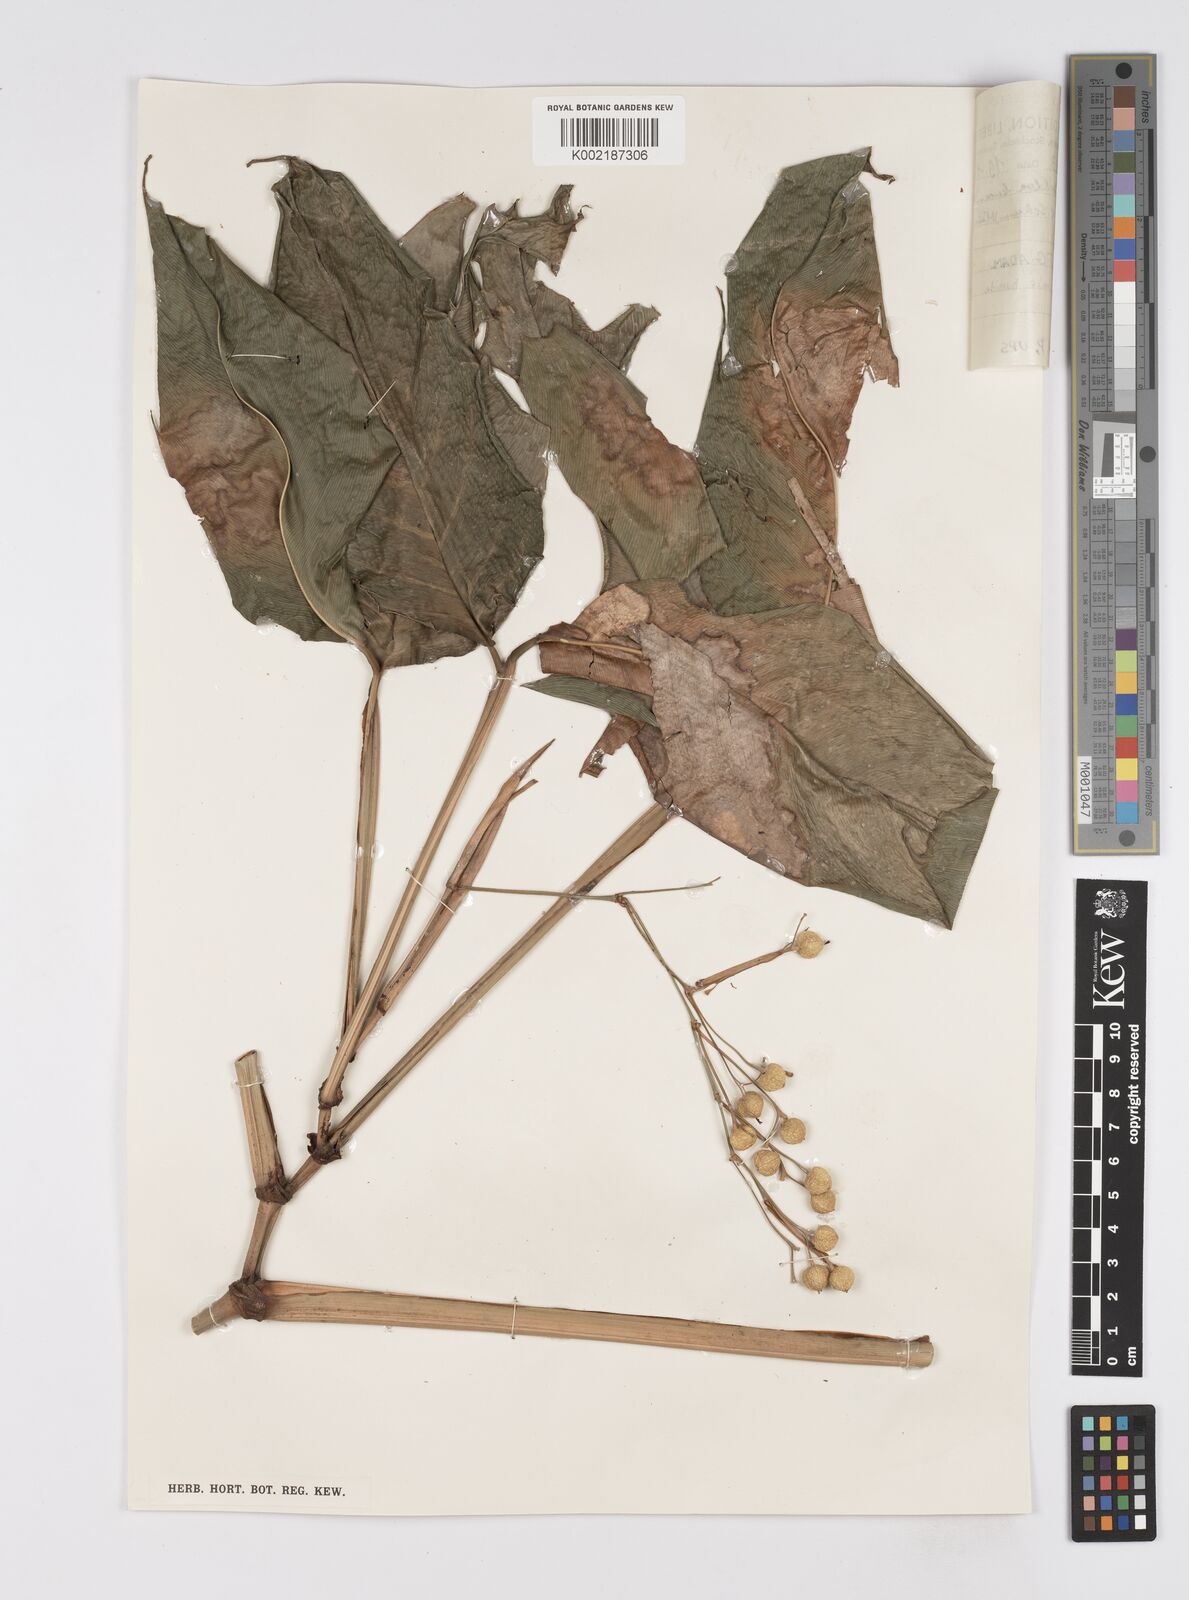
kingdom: Plantae
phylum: Tracheophyta
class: Liliopsida
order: Zingiberales
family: Marantaceae
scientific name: Marantaceae
